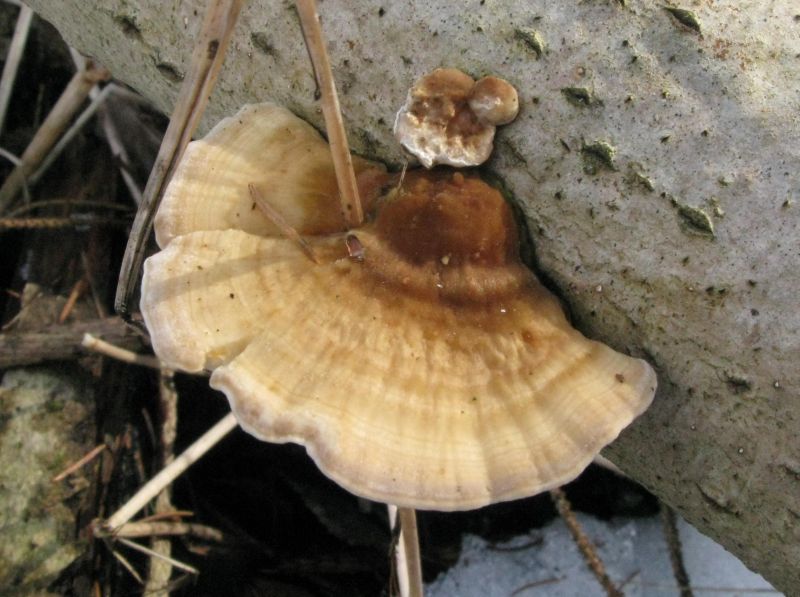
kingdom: Fungi
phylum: Basidiomycota
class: Agaricomycetes
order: Polyporales
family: Polyporaceae
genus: Trametes
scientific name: Trametes ochracea
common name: bæltet læderporesvamp
